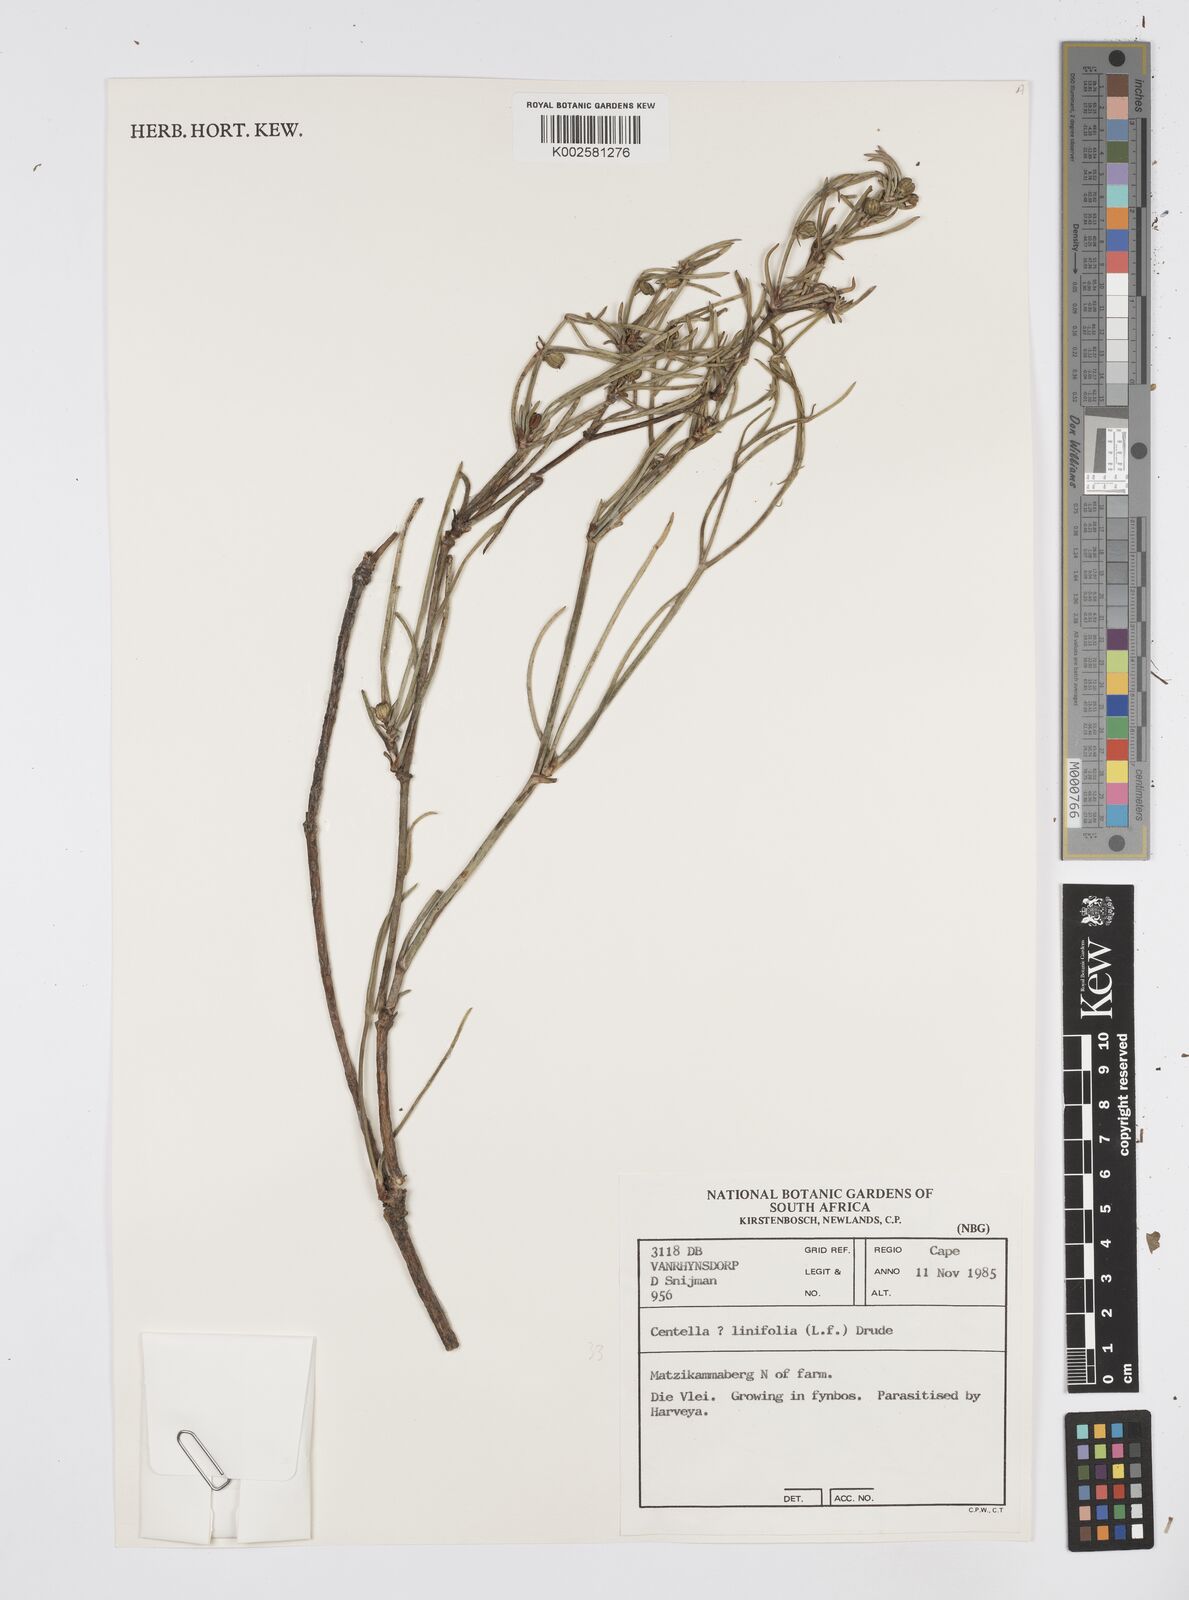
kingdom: Plantae
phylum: Tracheophyta
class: Magnoliopsida
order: Apiales
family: Apiaceae
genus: Centella
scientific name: Centella linifolia
